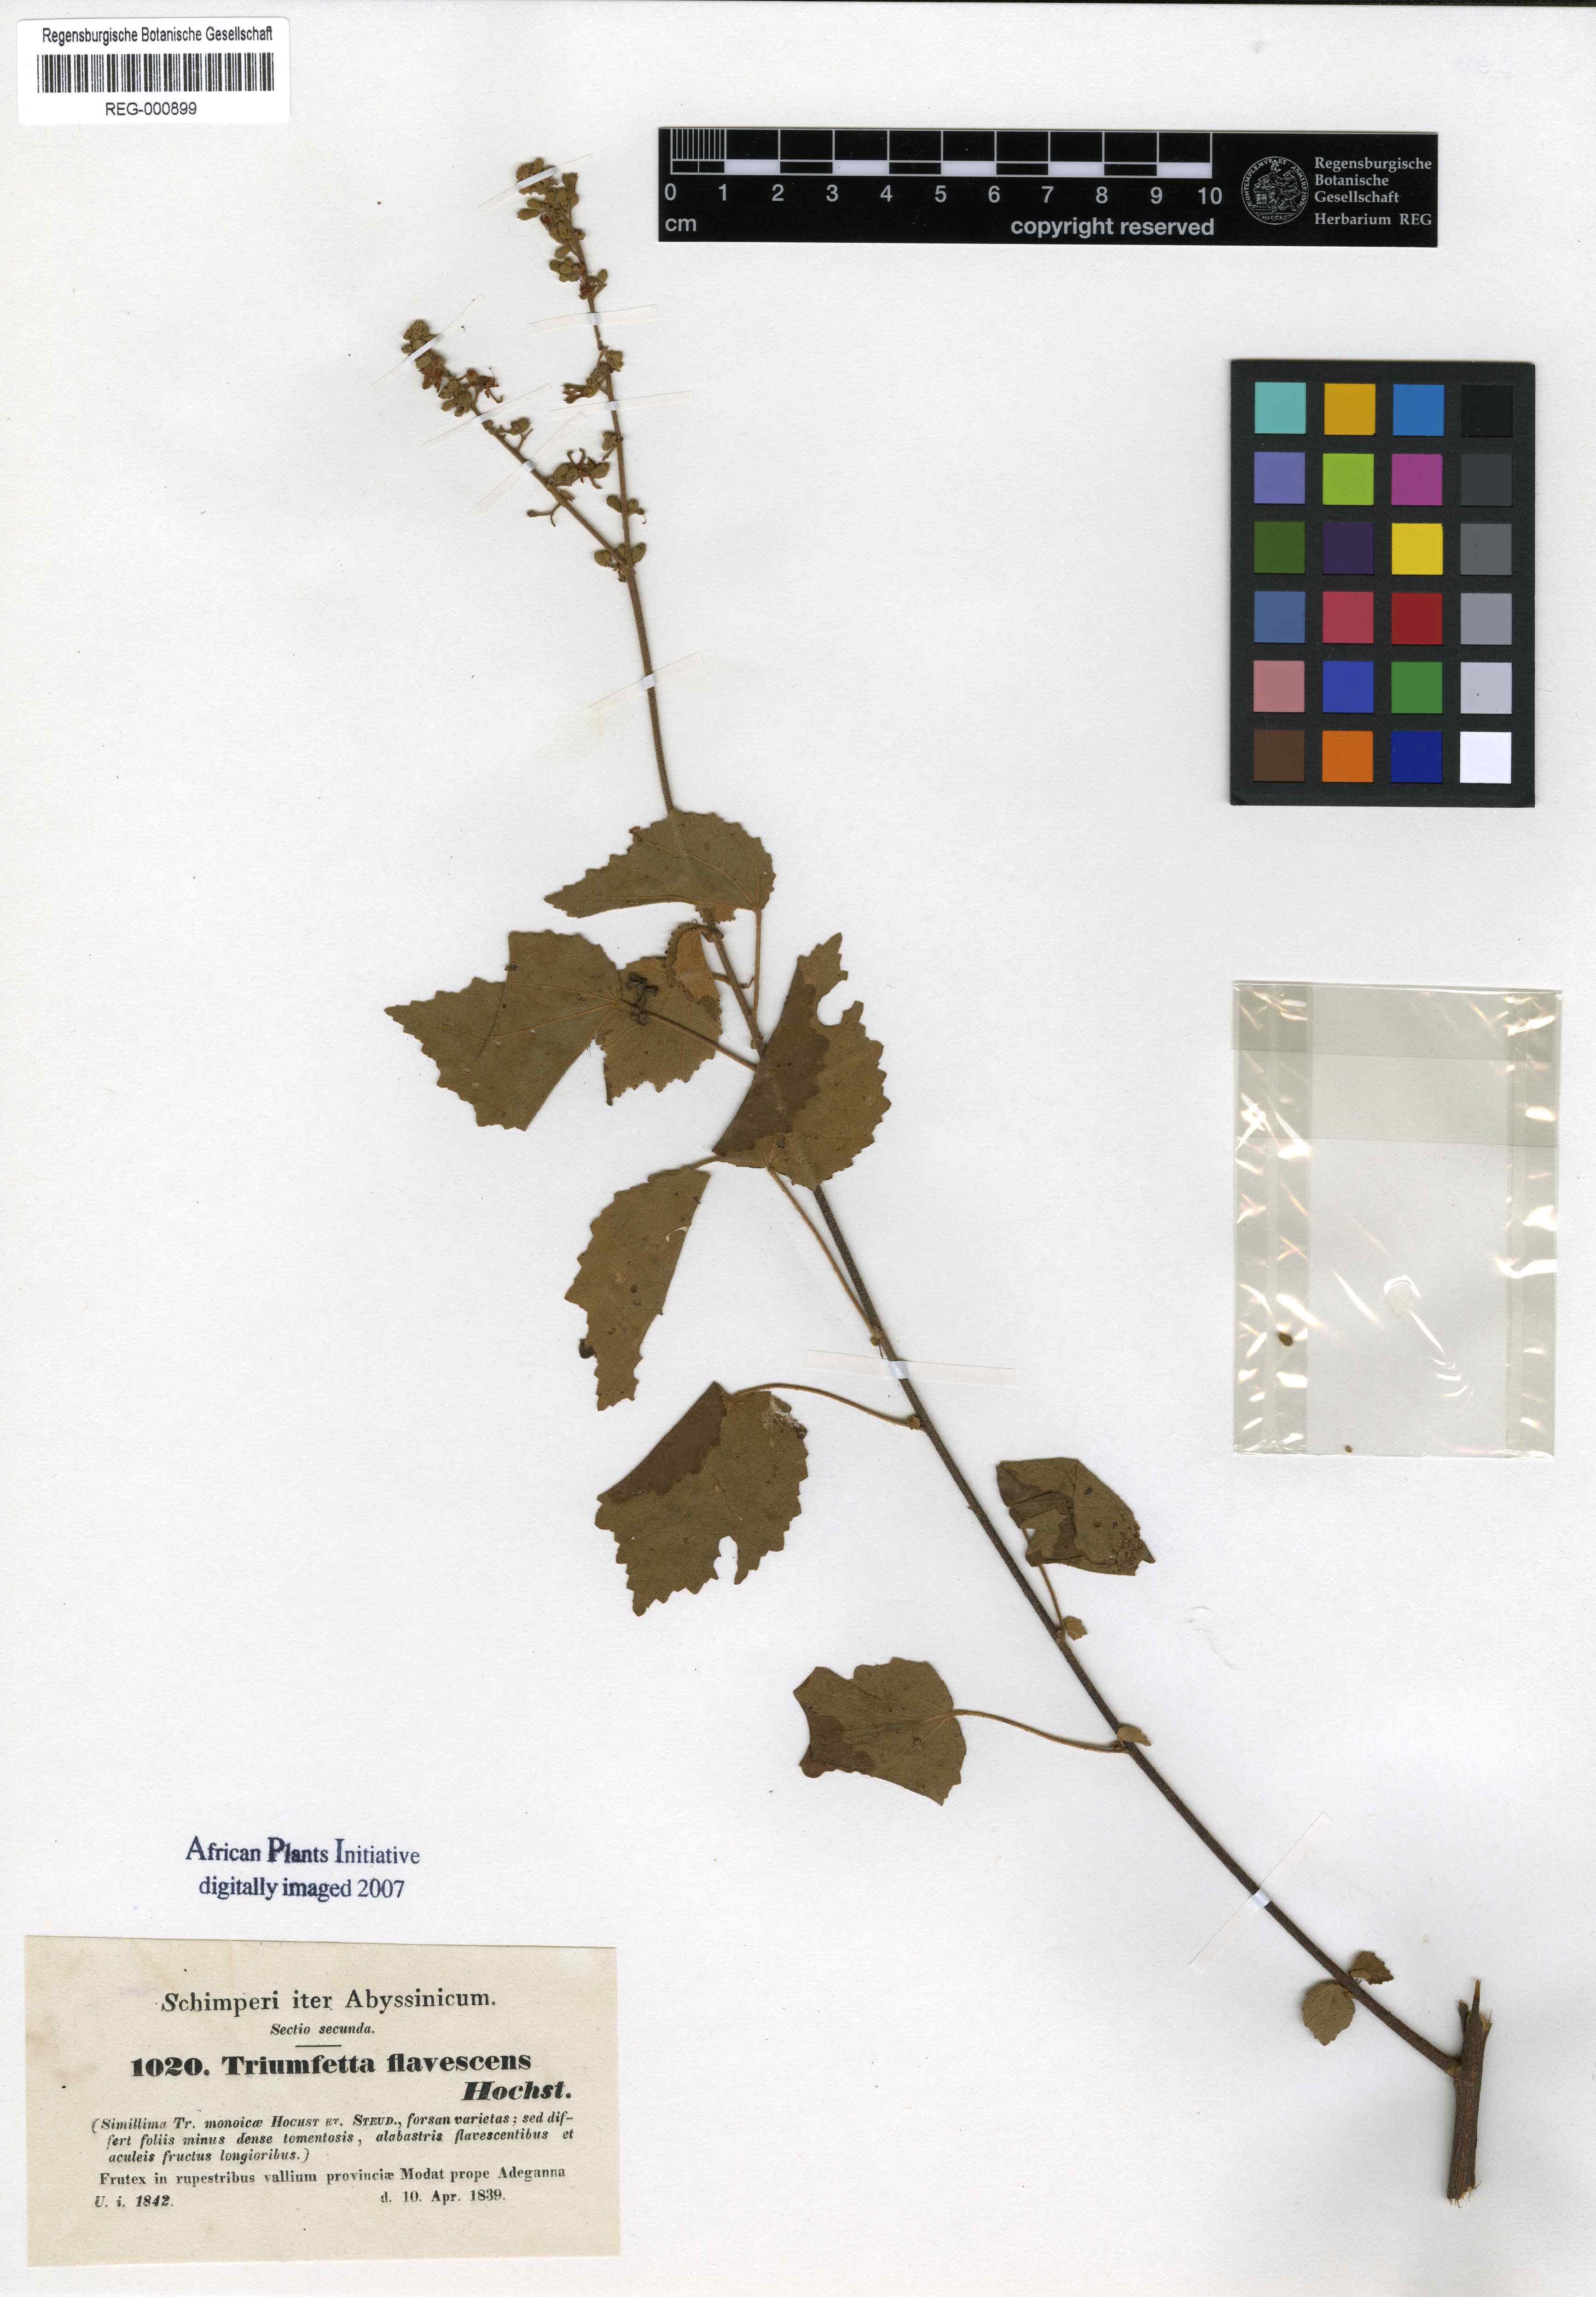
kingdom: Plantae
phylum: Tracheophyta
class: Magnoliopsida
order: Malvales
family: Malvaceae
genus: Triumfetta
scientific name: Triumfetta flavescens
